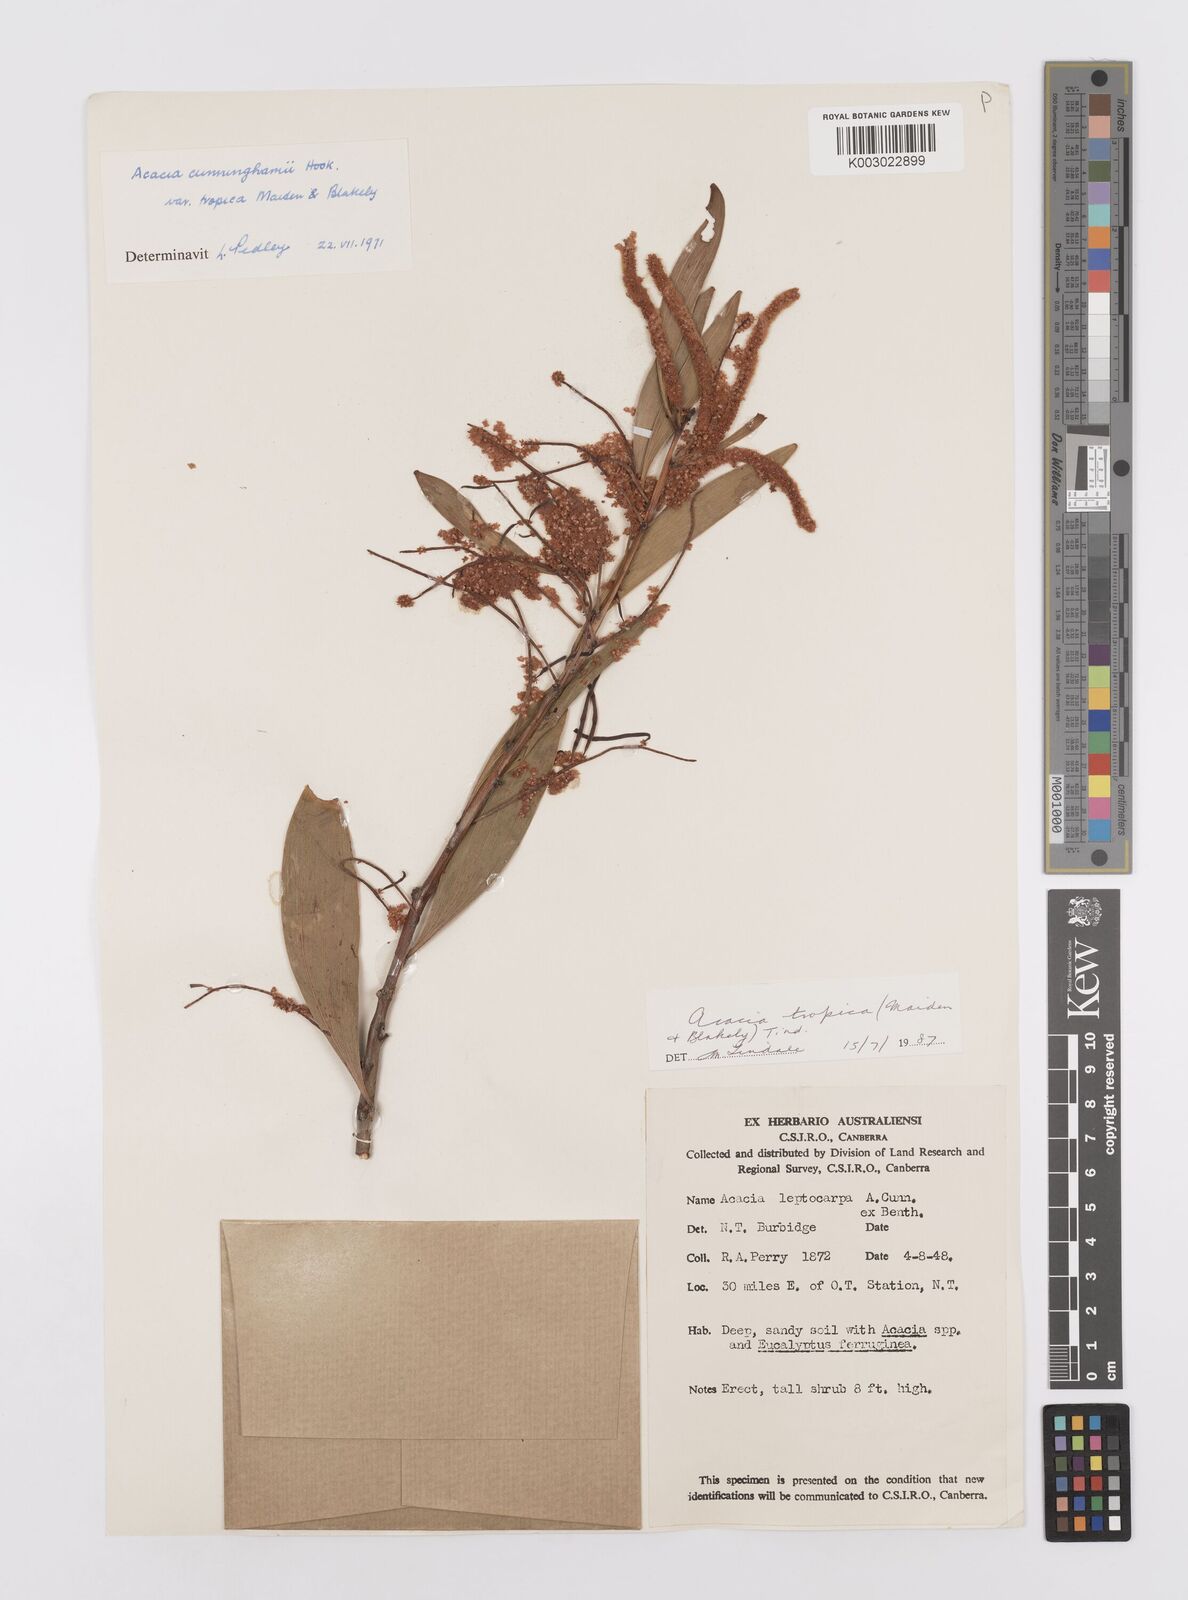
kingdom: Plantae
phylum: Tracheophyta
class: Magnoliopsida
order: Fabales
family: Fabaceae
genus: Acacia
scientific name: Acacia leptocarpa
